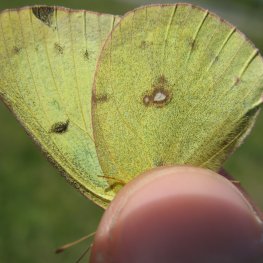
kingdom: Animalia
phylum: Arthropoda
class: Insecta
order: Lepidoptera
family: Pieridae
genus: Colias
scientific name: Colias philodice
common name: Clouded Sulphur
